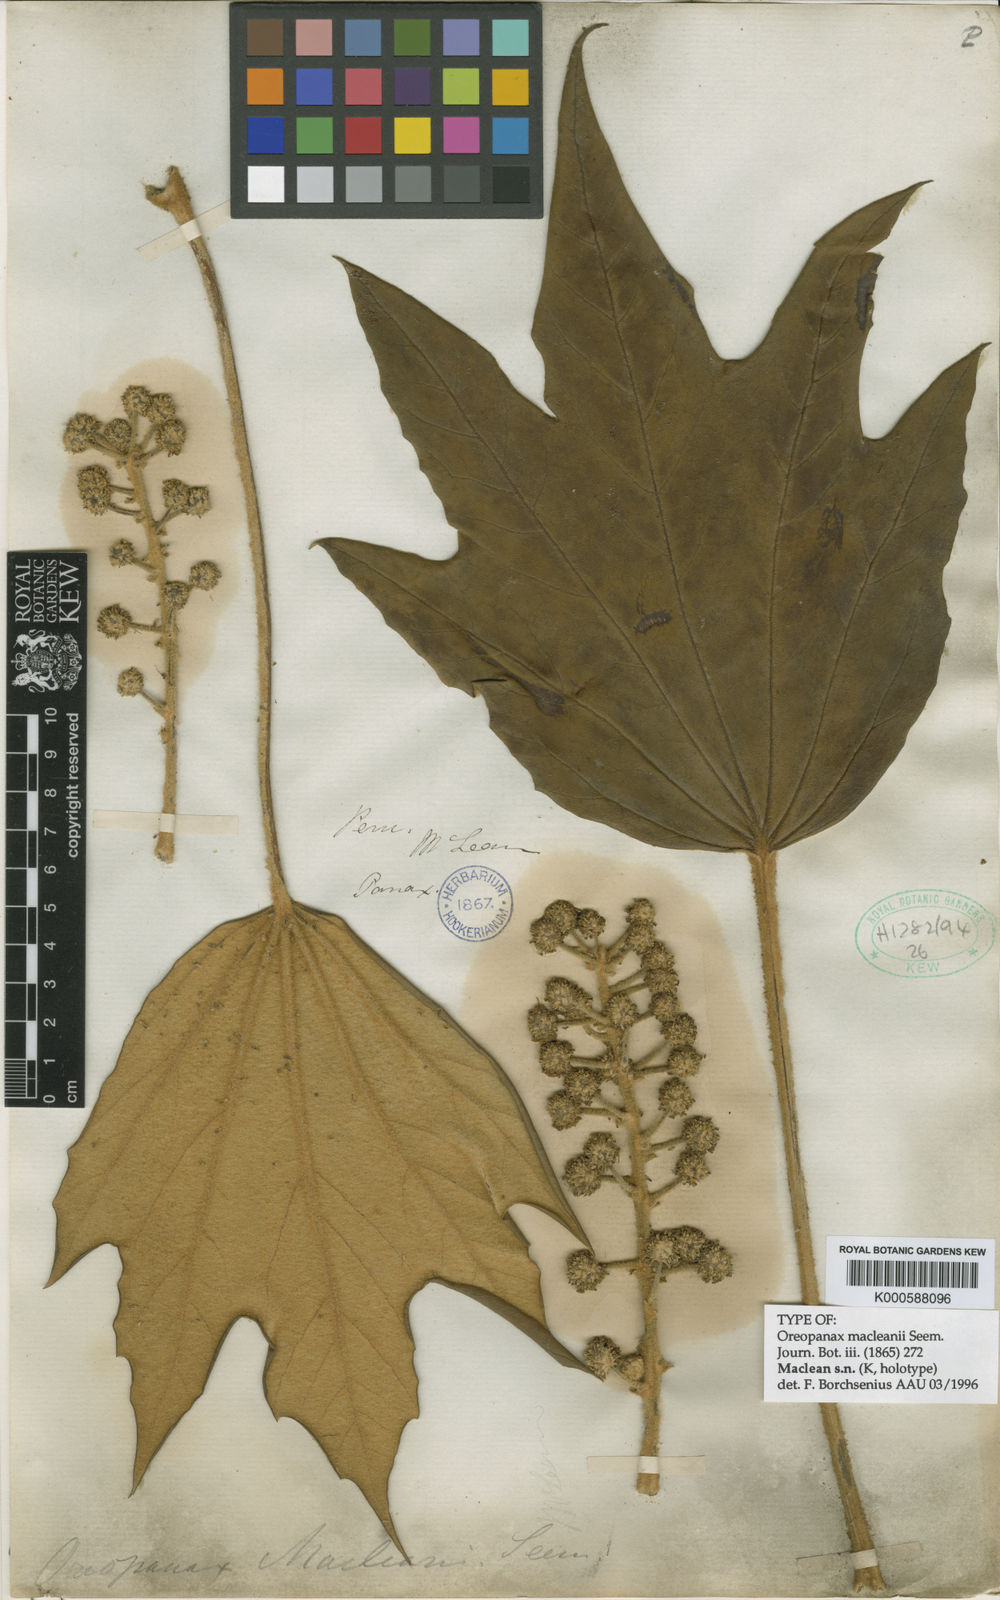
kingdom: Plantae
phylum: Tracheophyta
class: Magnoliopsida
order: Apiales
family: Araliaceae
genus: Oreopanax
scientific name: Oreopanax macleanii
